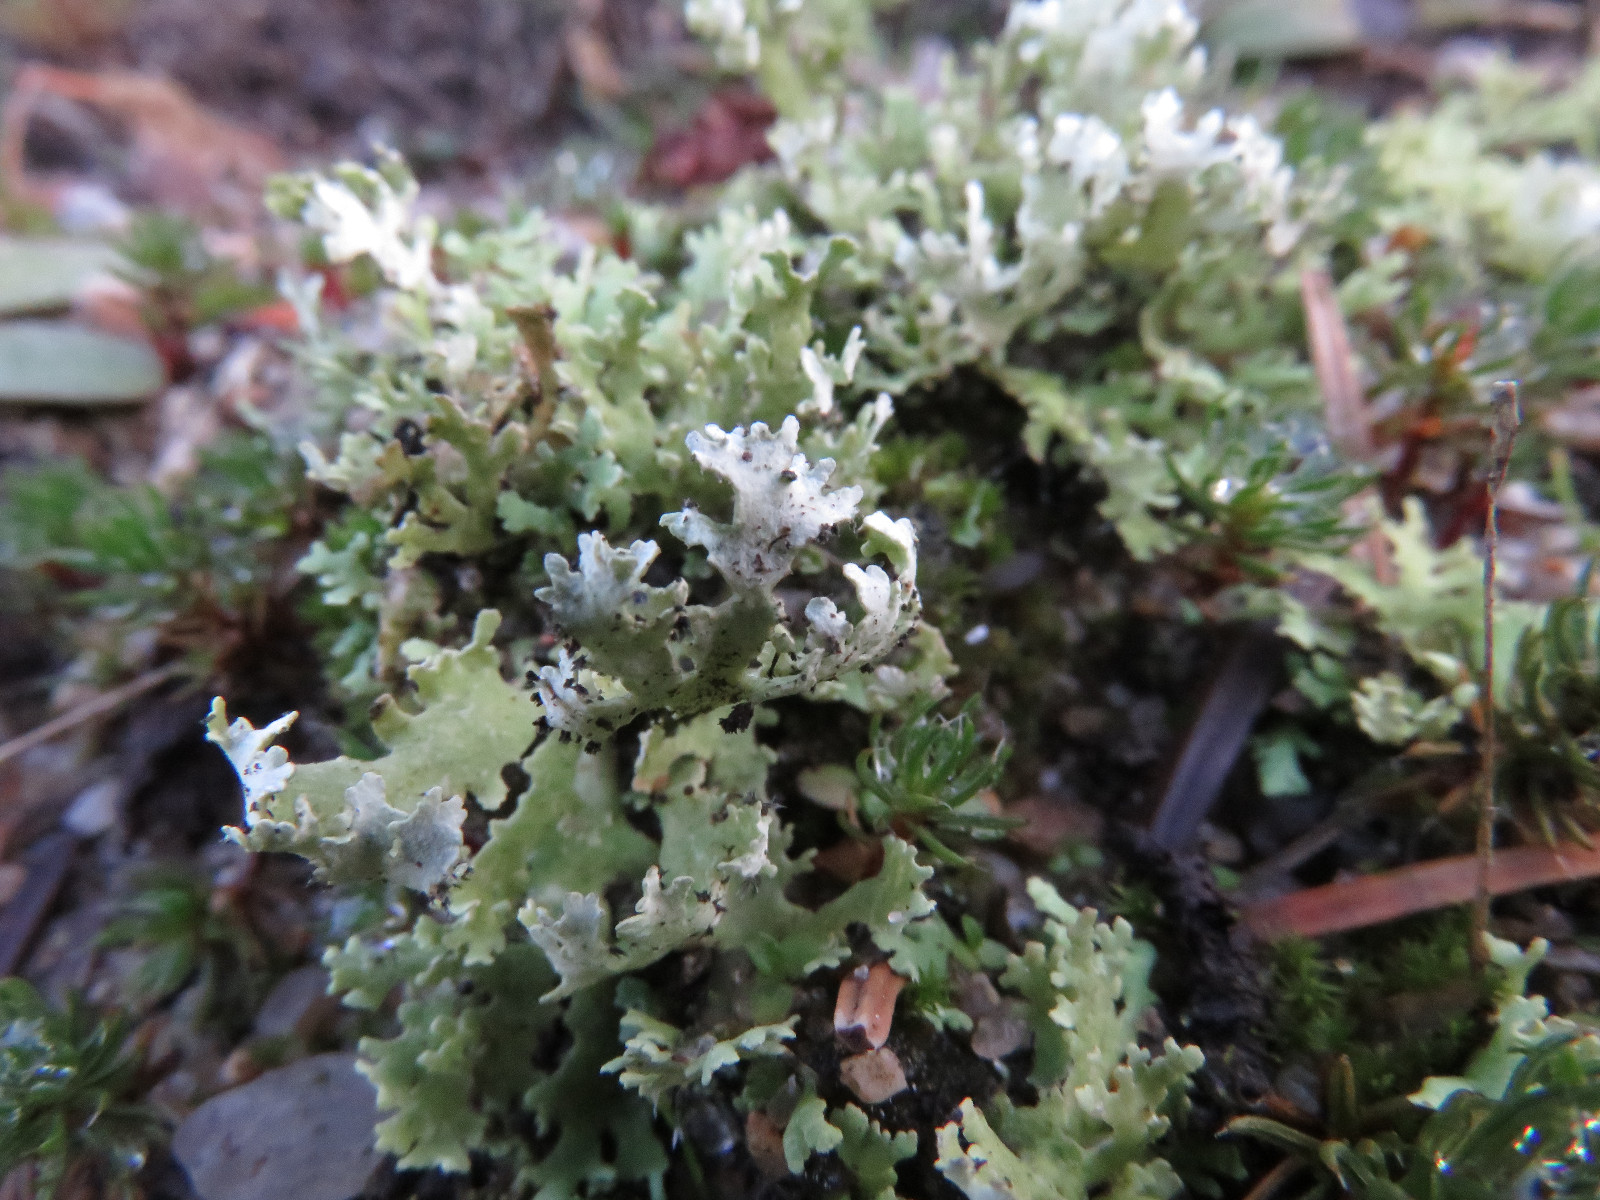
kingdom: Fungi
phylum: Ascomycota
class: Lecanoromycetes
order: Lecanorales
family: Cladoniaceae
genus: Cladonia
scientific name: Cladonia foliacea
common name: fliget bægerlav
